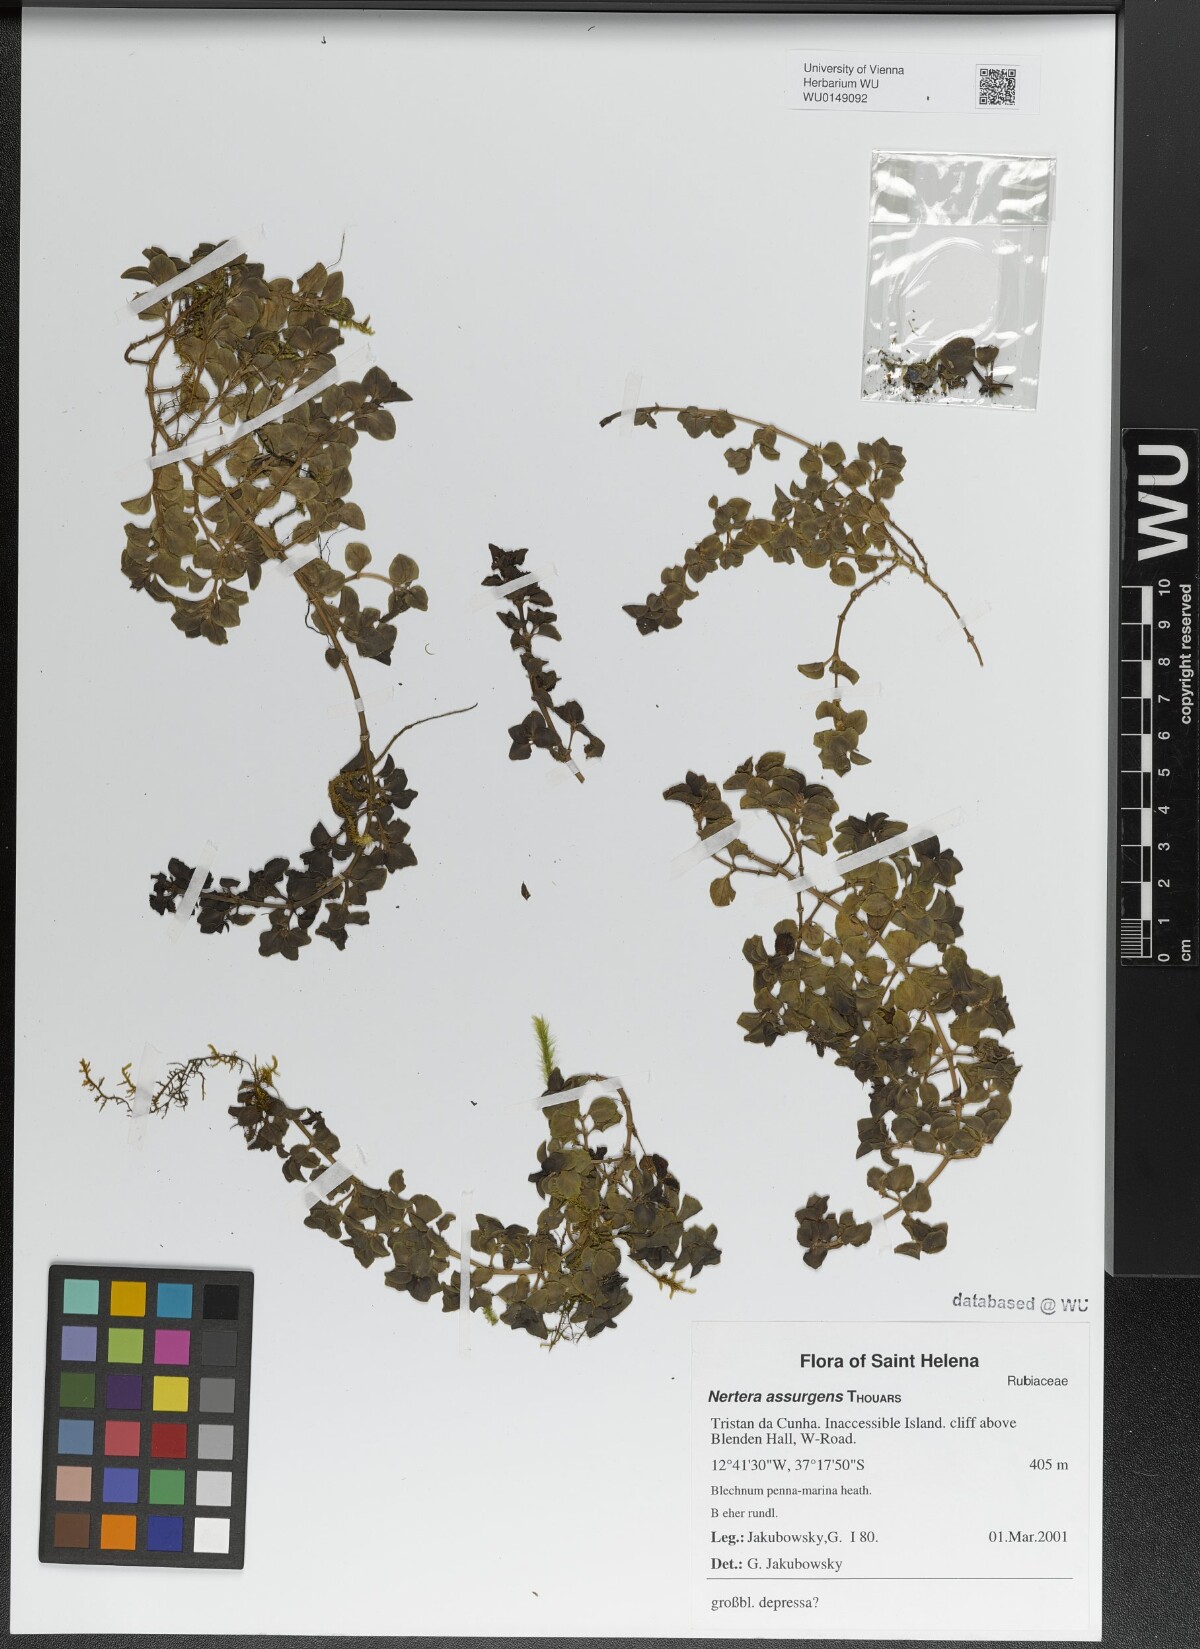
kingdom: Plantae
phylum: Tracheophyta
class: Magnoliopsida
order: Gentianales
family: Rubiaceae
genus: Nertera
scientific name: Nertera granadensis
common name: Beadplant
